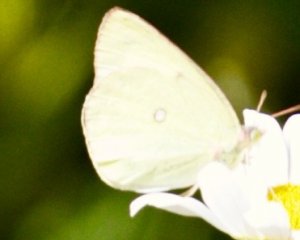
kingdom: Animalia
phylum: Arthropoda
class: Insecta
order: Lepidoptera
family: Pieridae
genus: Colias
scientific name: Colias interior
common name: Pink-edged Sulphur
